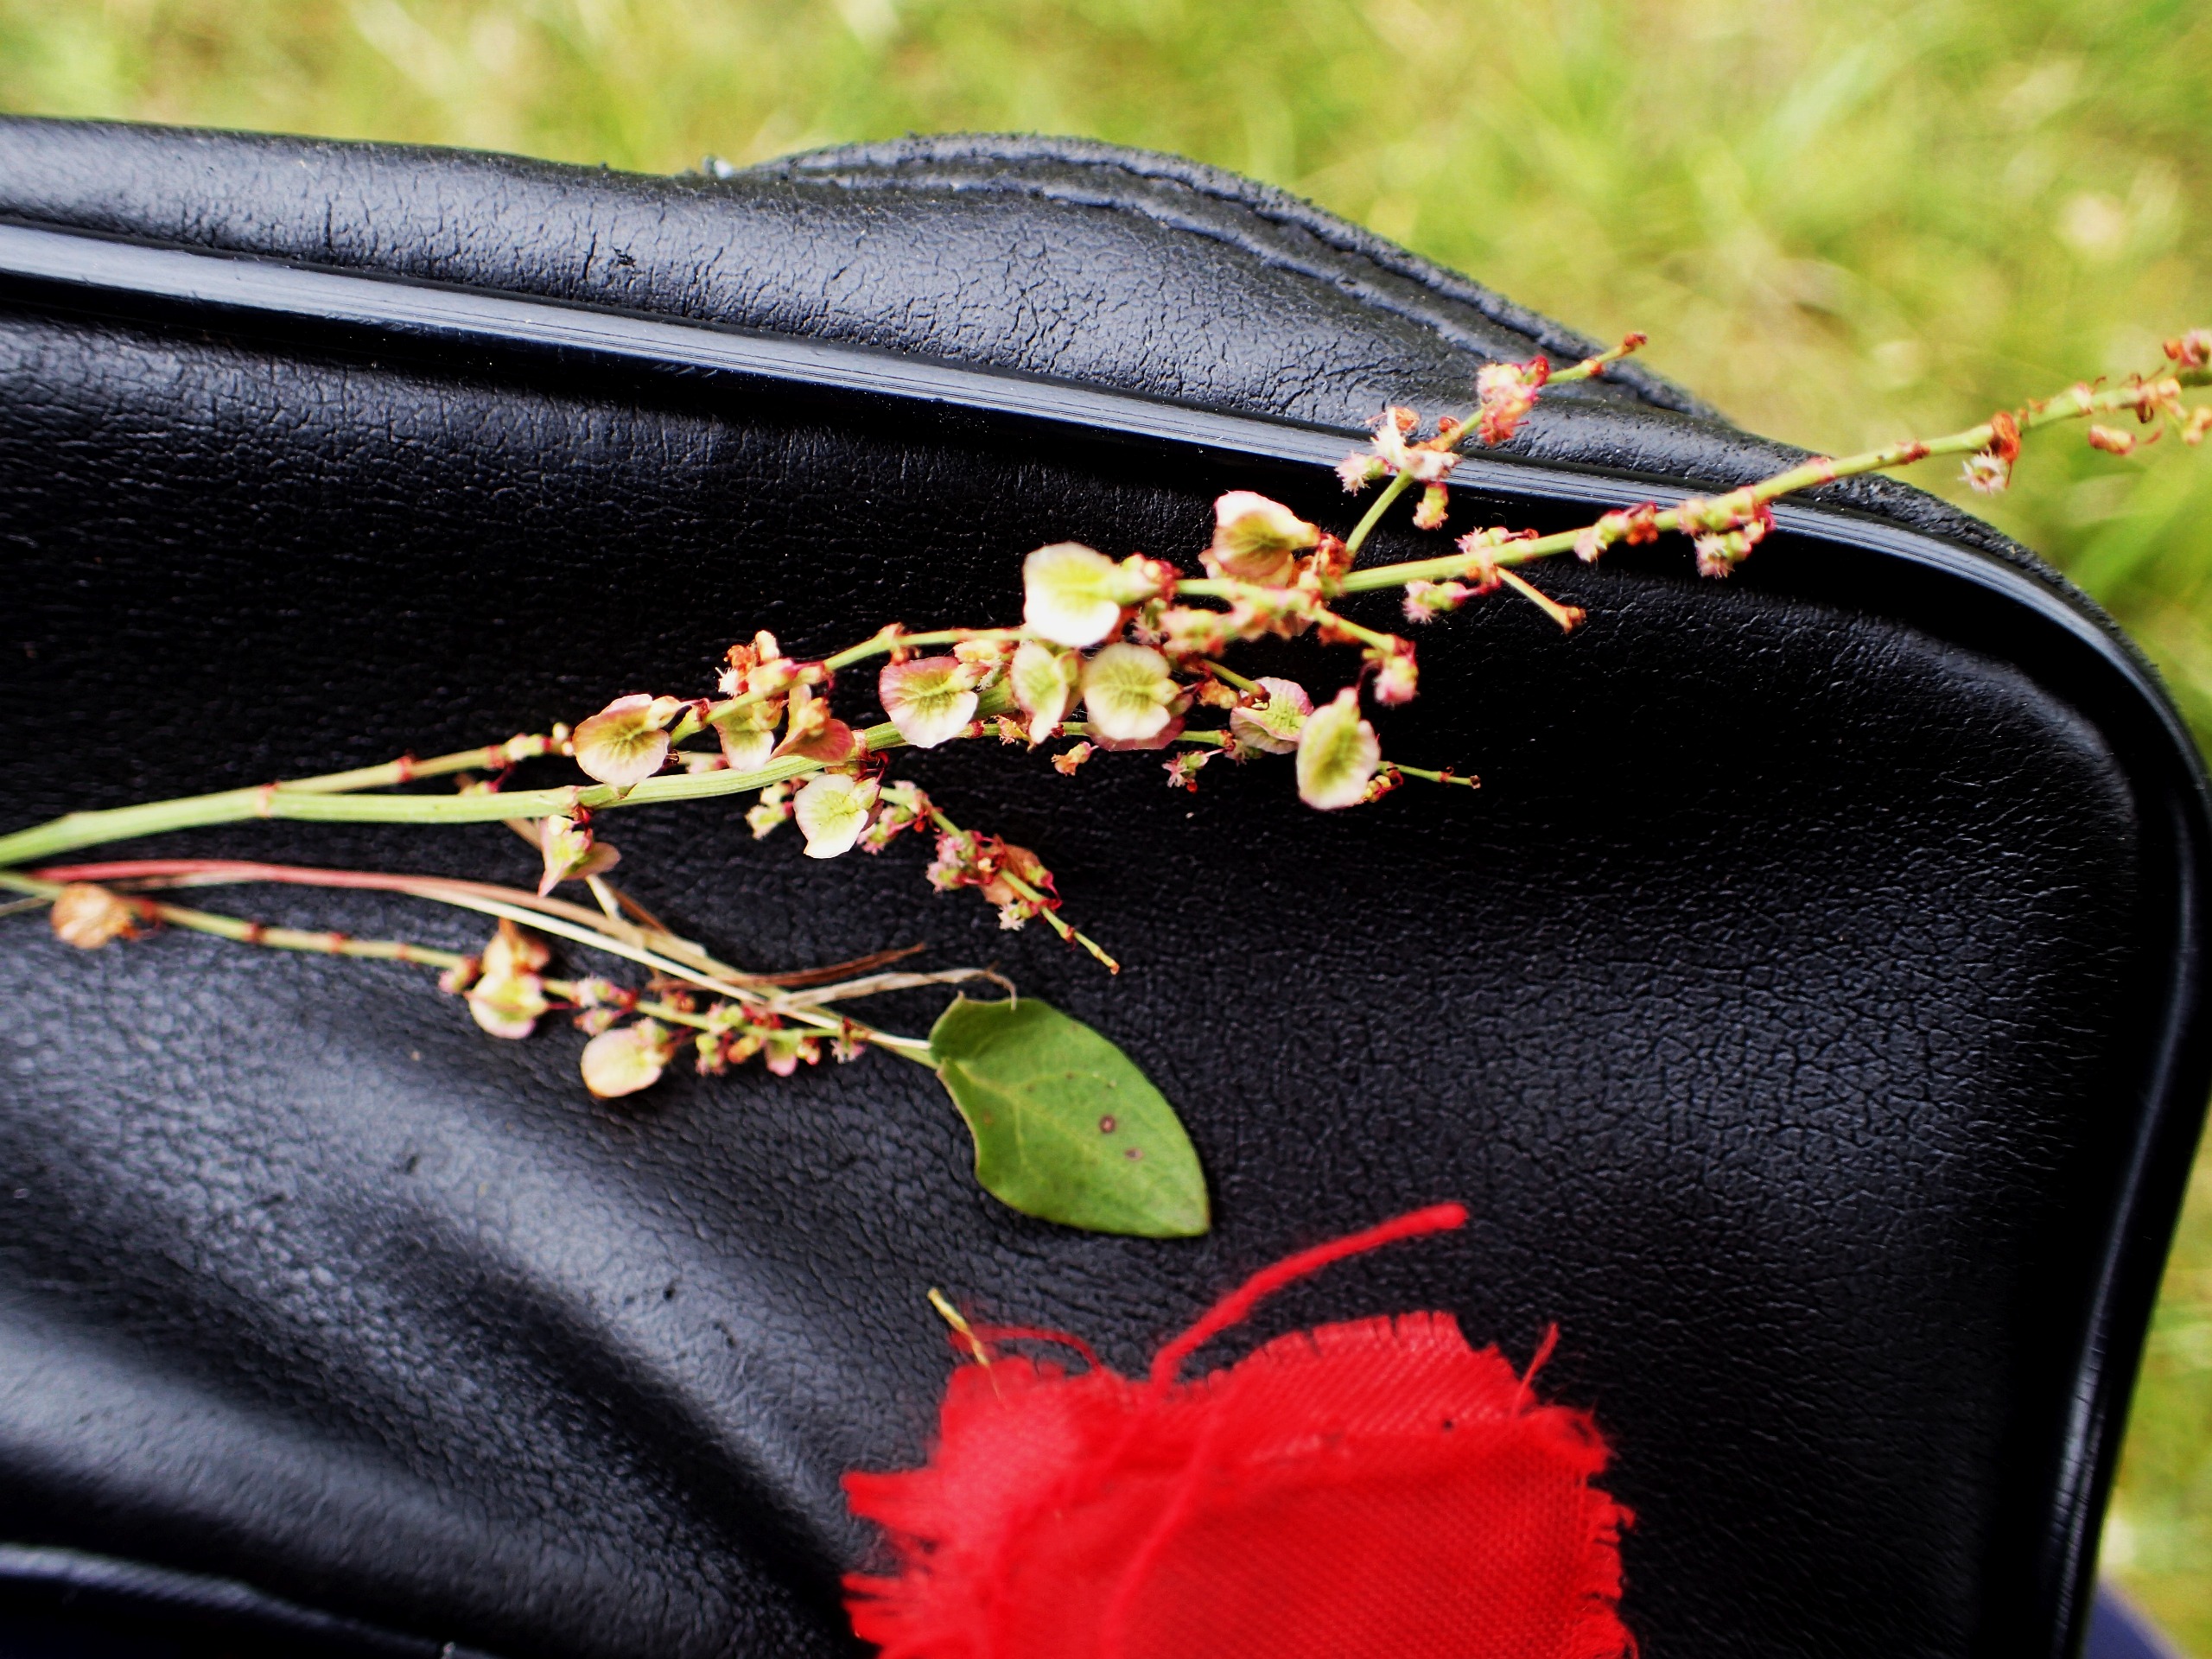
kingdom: Plantae
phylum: Tracheophyta
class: Magnoliopsida
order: Caryophyllales
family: Polygonaceae
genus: Rumex
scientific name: Rumex acetosa
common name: Almindelig syre
